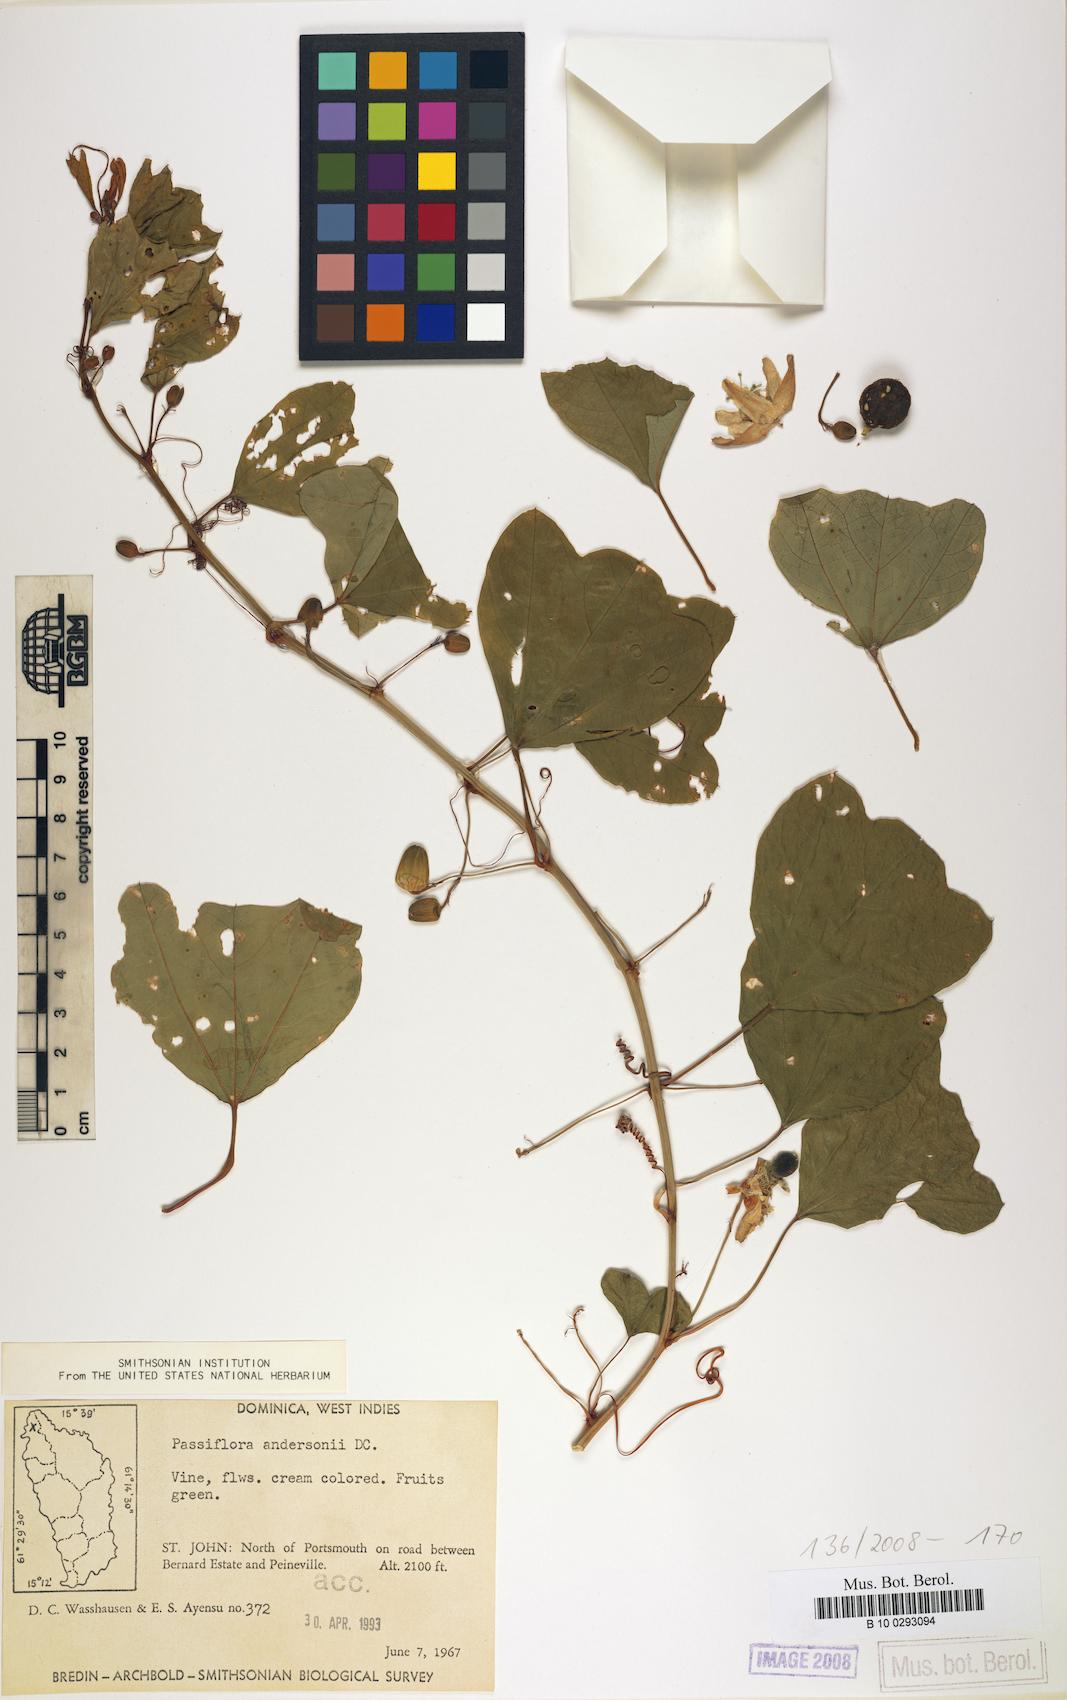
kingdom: Plantae
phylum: Tracheophyta
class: Magnoliopsida
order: Malpighiales
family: Passifloraceae
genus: Passiflora
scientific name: Passiflora andersonii
